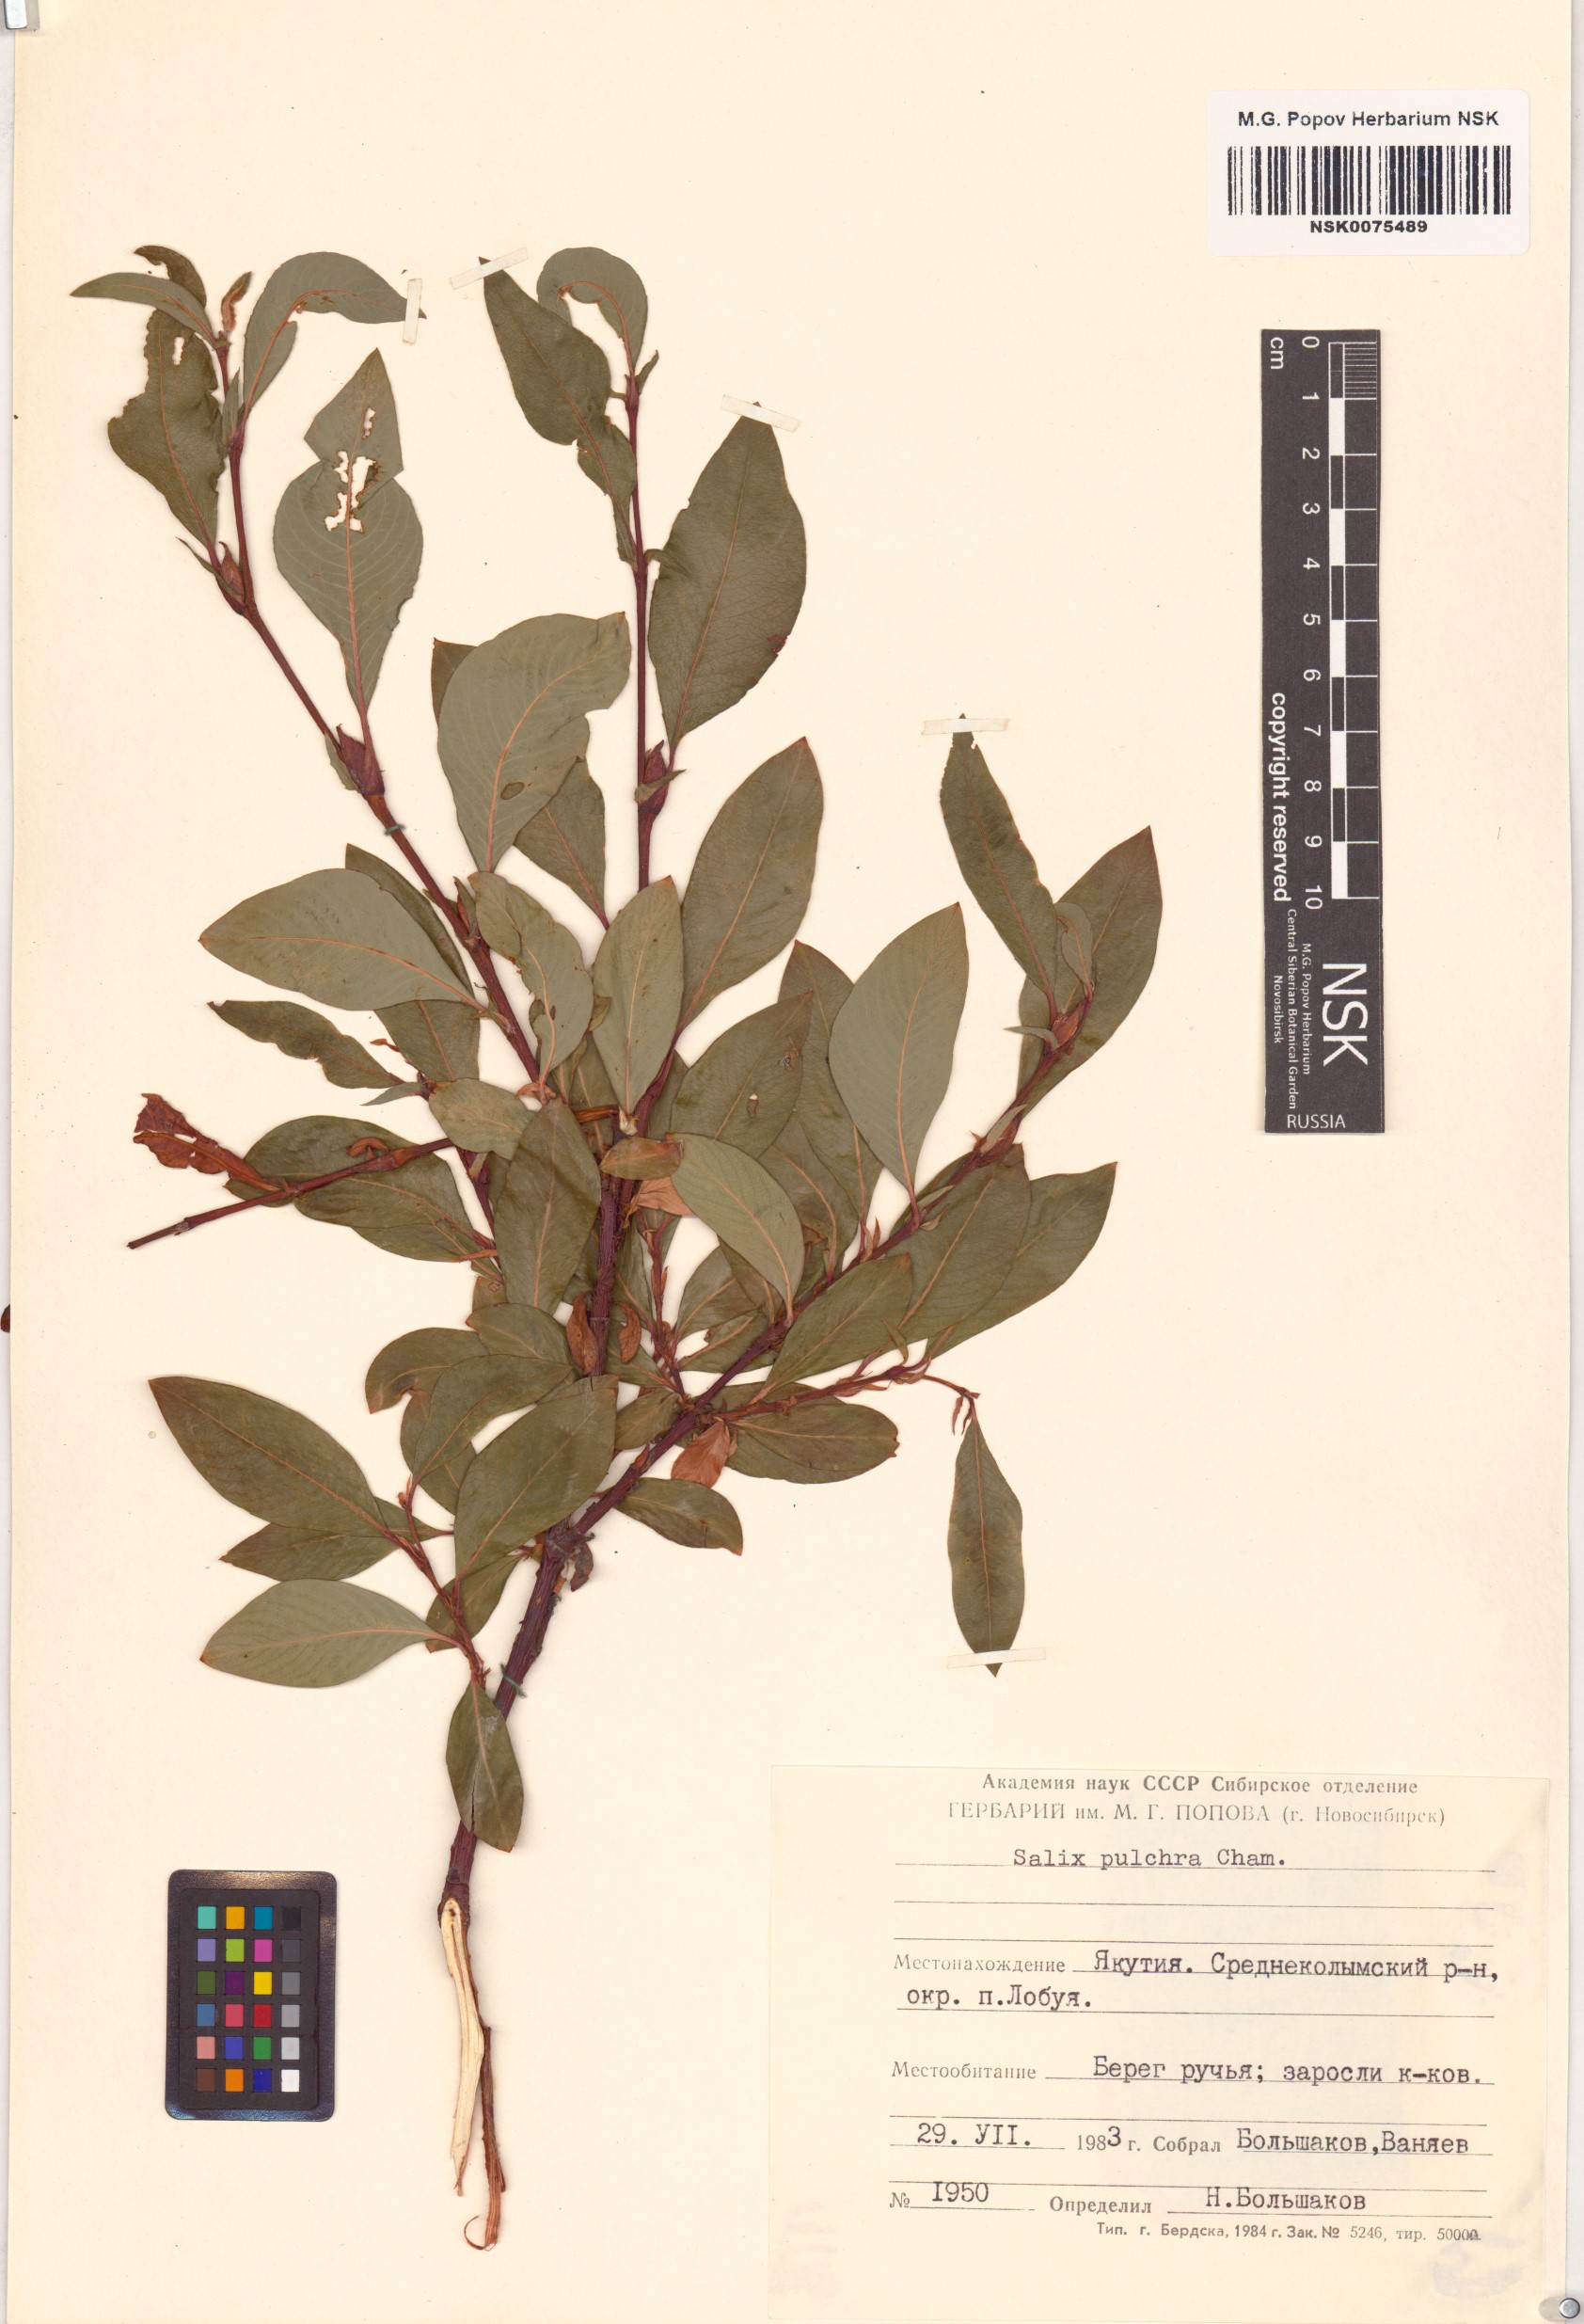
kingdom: Plantae
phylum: Tracheophyta
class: Magnoliopsida
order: Malpighiales
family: Salicaceae
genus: Salix
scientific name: Salix pulchra
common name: Diamond-leaved willow
